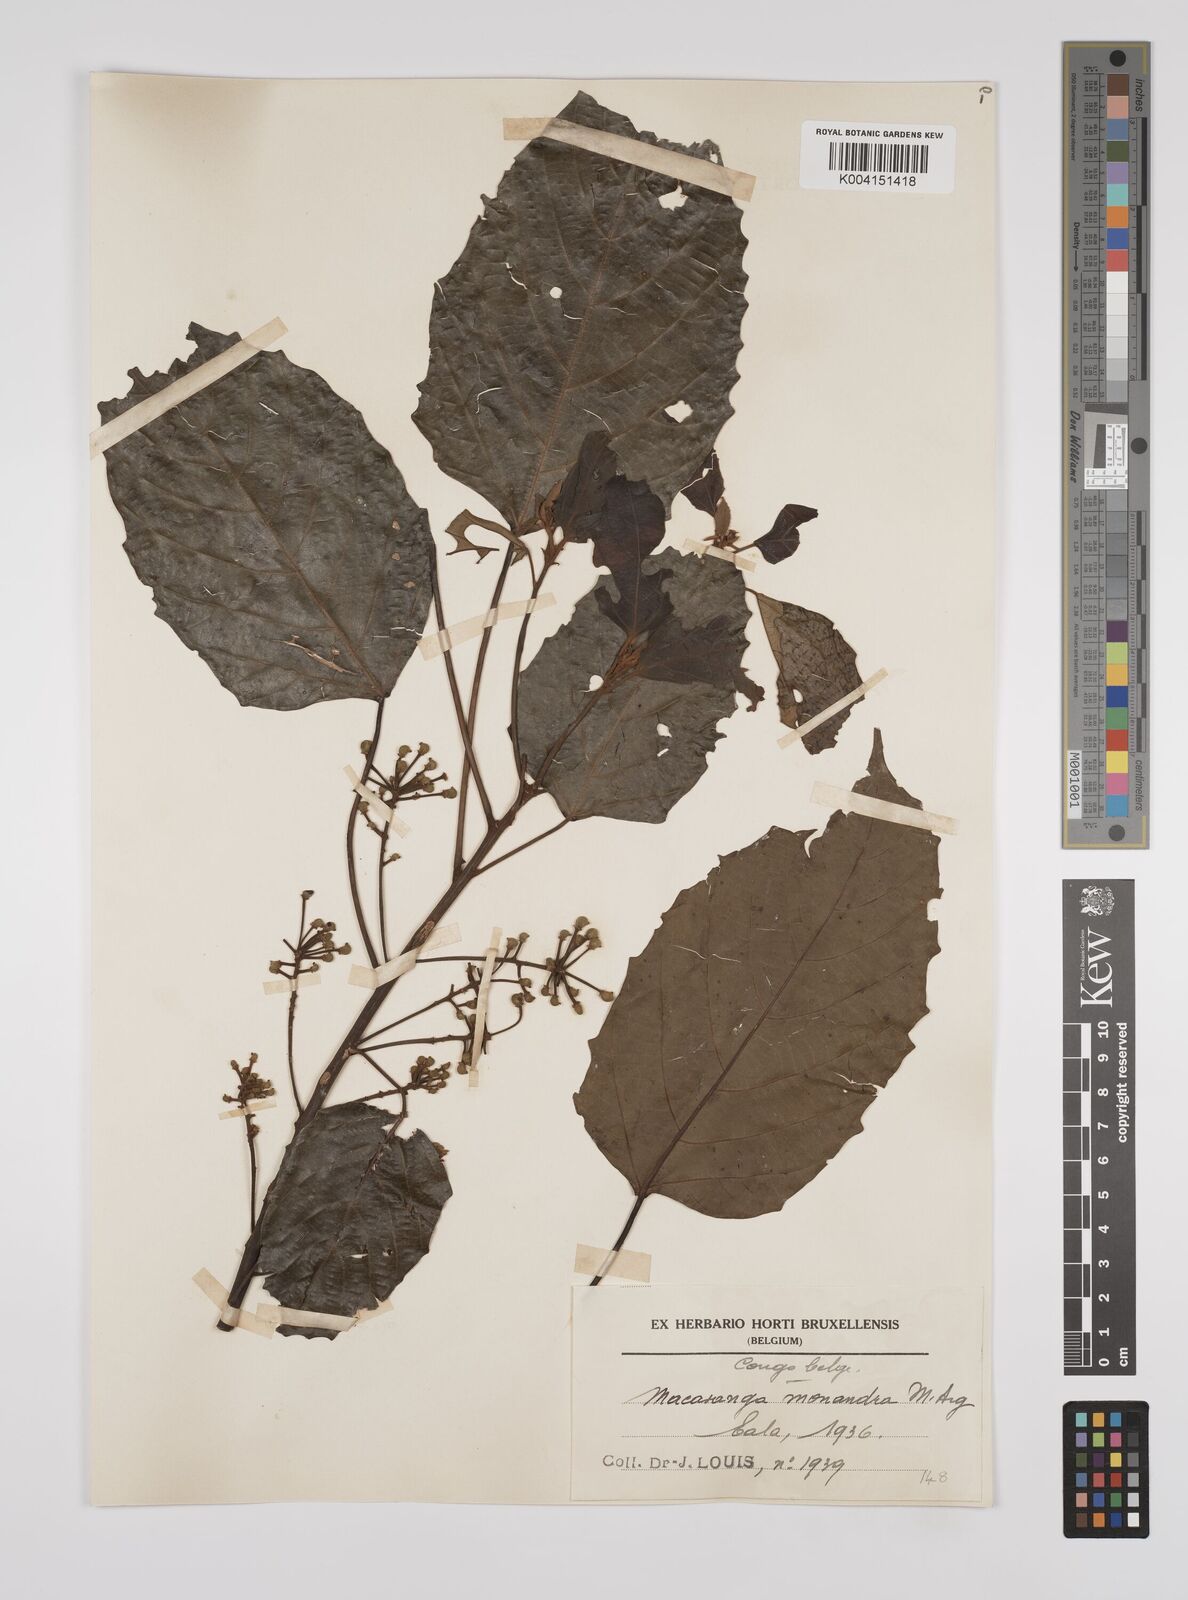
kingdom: Plantae
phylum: Tracheophyta
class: Magnoliopsida
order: Malpighiales
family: Euphorbiaceae
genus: Macaranga
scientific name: Macaranga monandra
